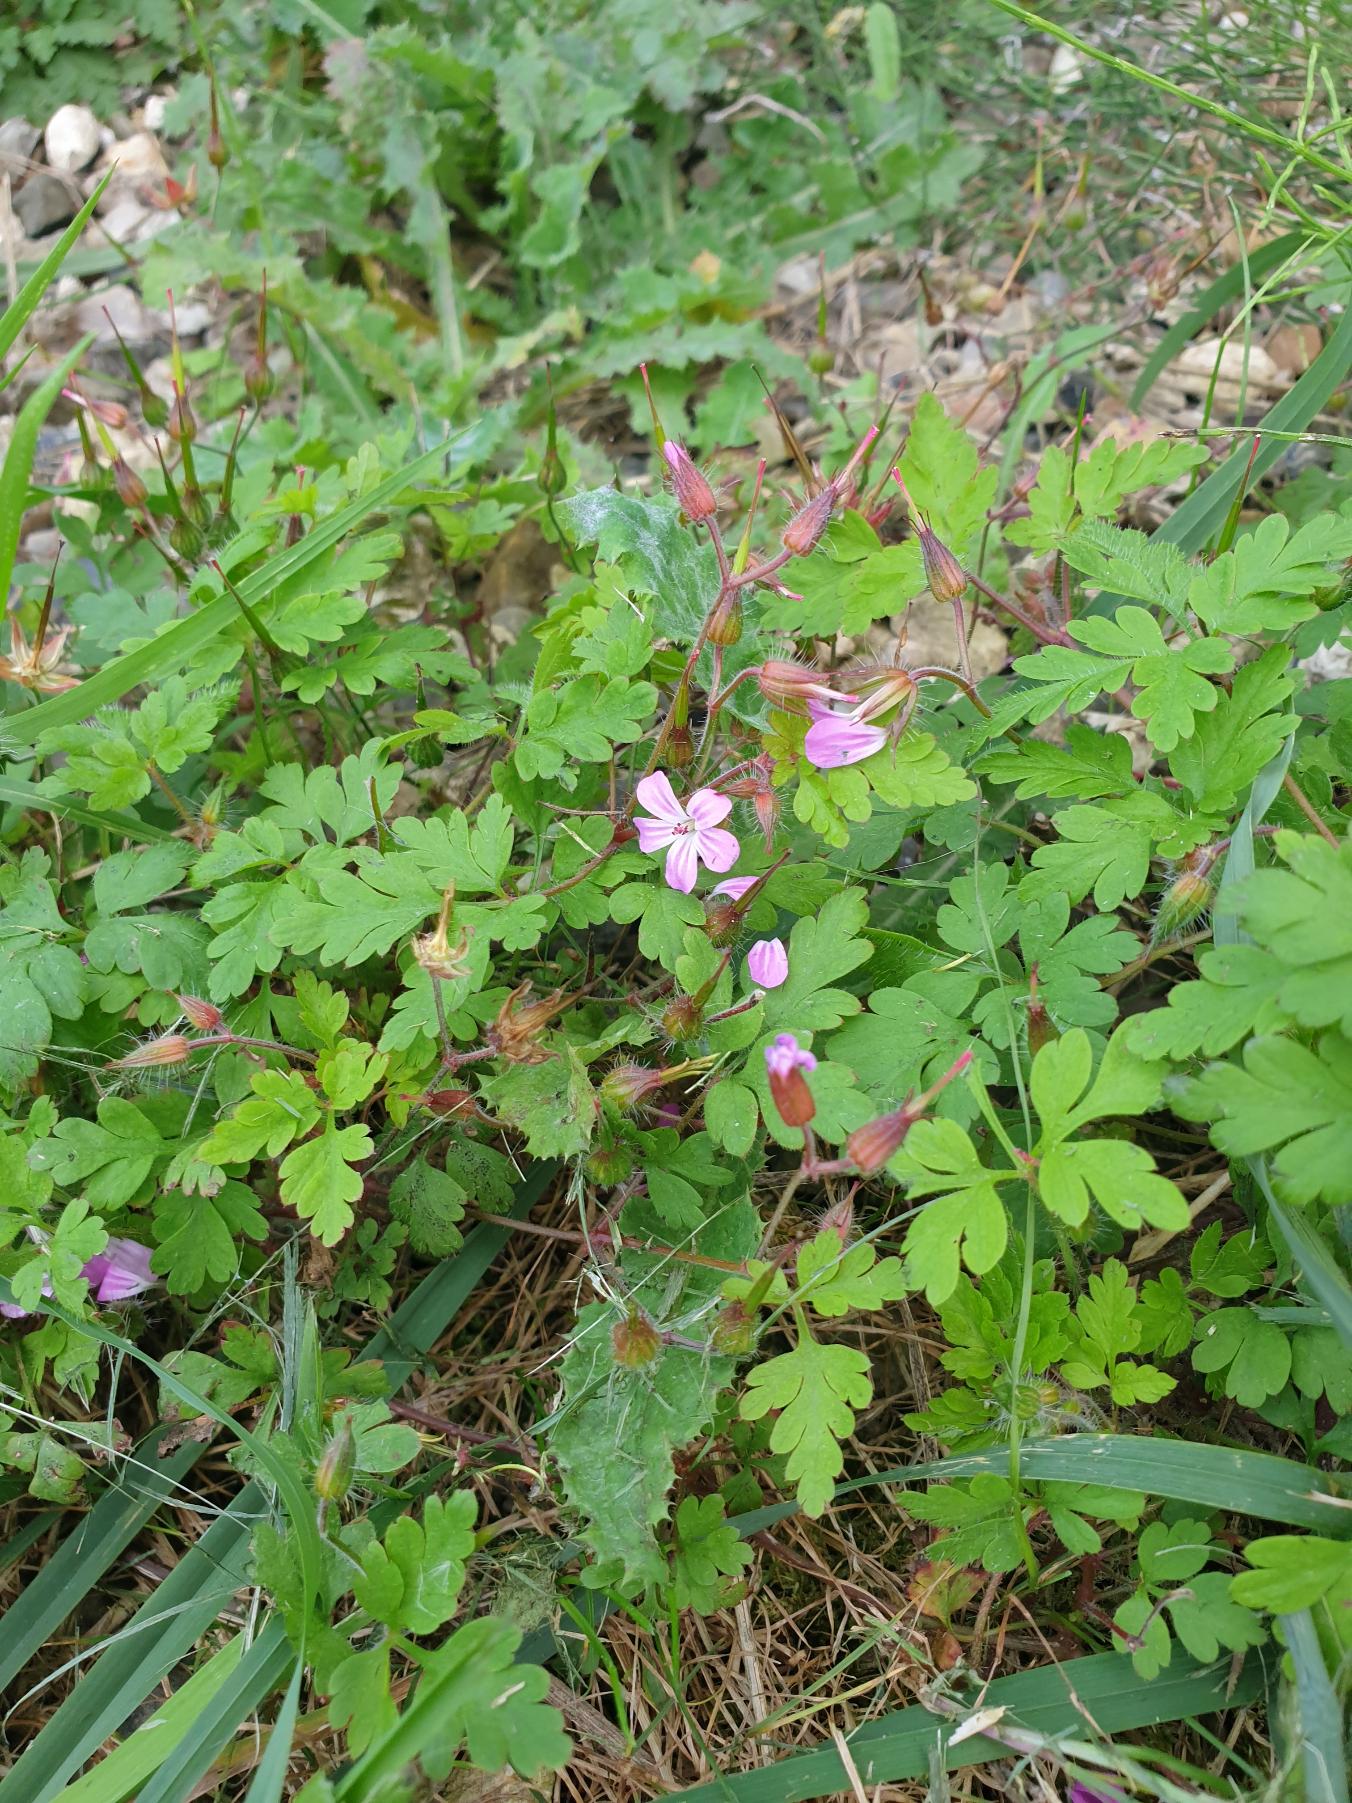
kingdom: Plantae
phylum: Tracheophyta
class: Magnoliopsida
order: Geraniales
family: Geraniaceae
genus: Geranium
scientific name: Geranium robertianum
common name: Stinkende storkenæb
